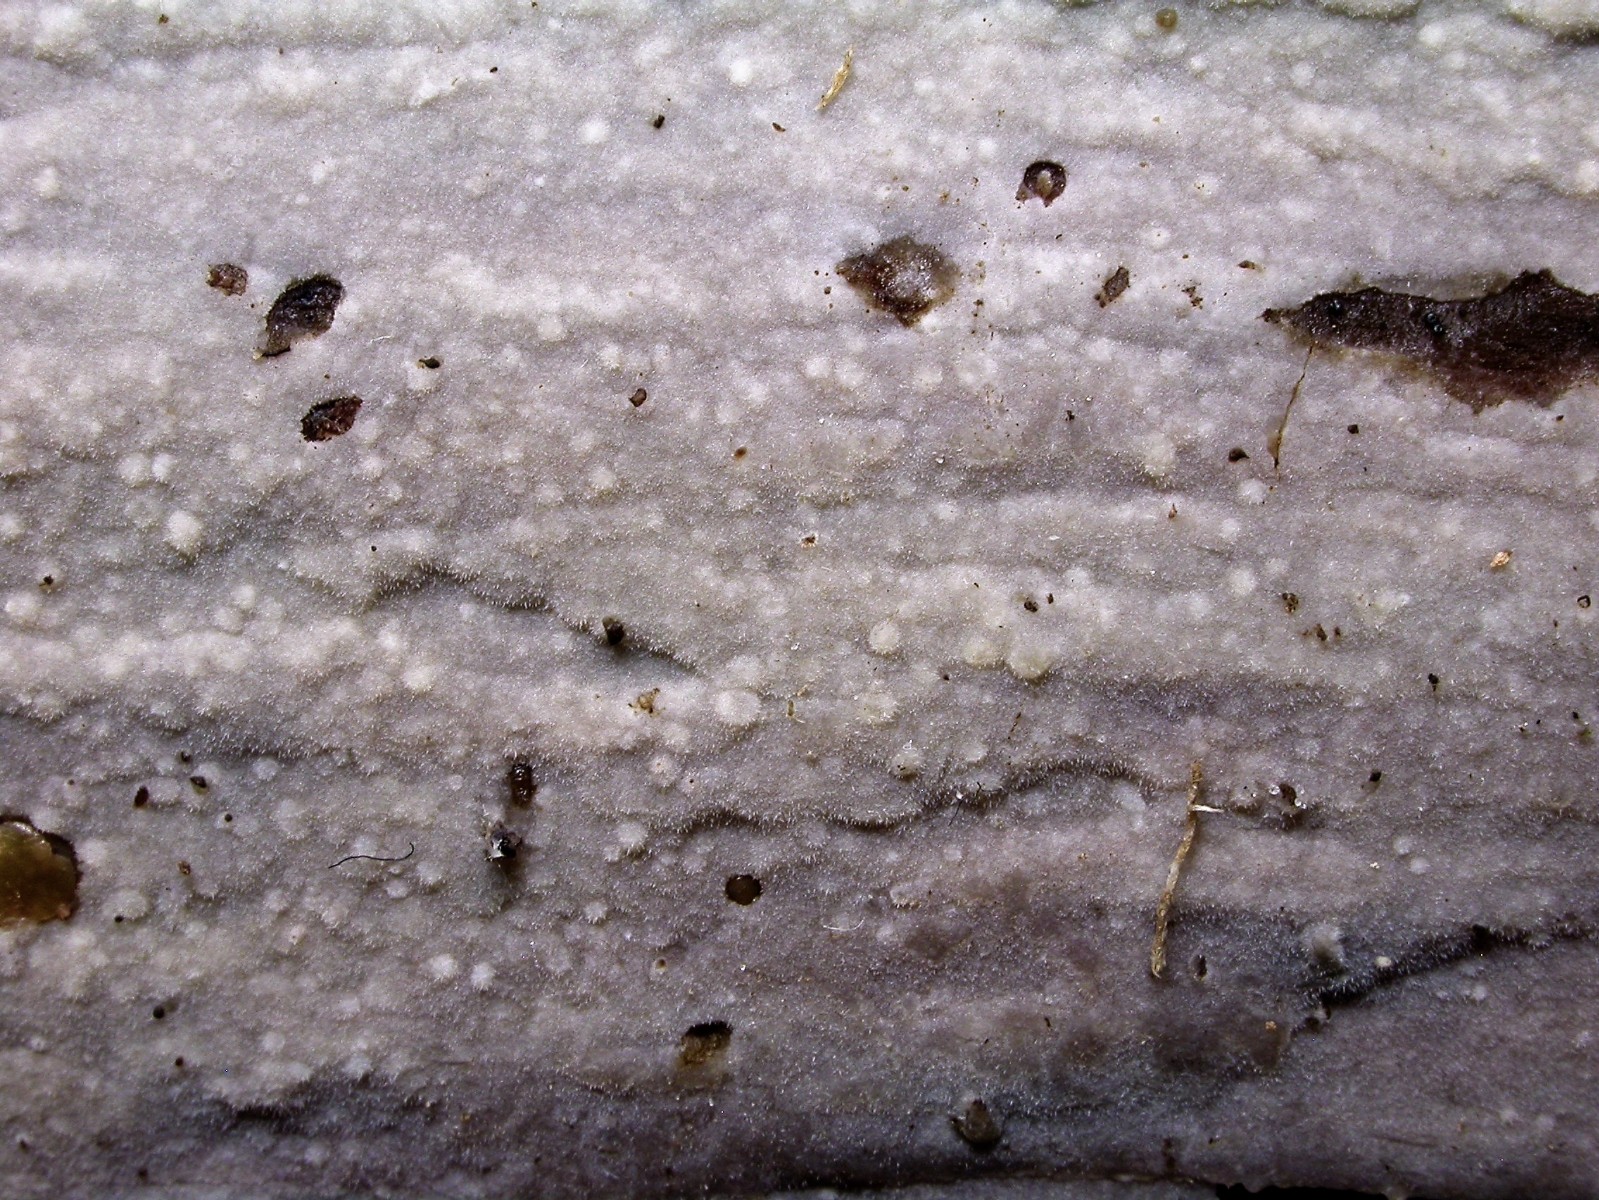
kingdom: Fungi
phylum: Basidiomycota
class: Agaricomycetes
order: Hymenochaetales
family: Rickenellaceae
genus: Peniophorella
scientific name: Peniophorella pubera
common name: dunet kalkskind
